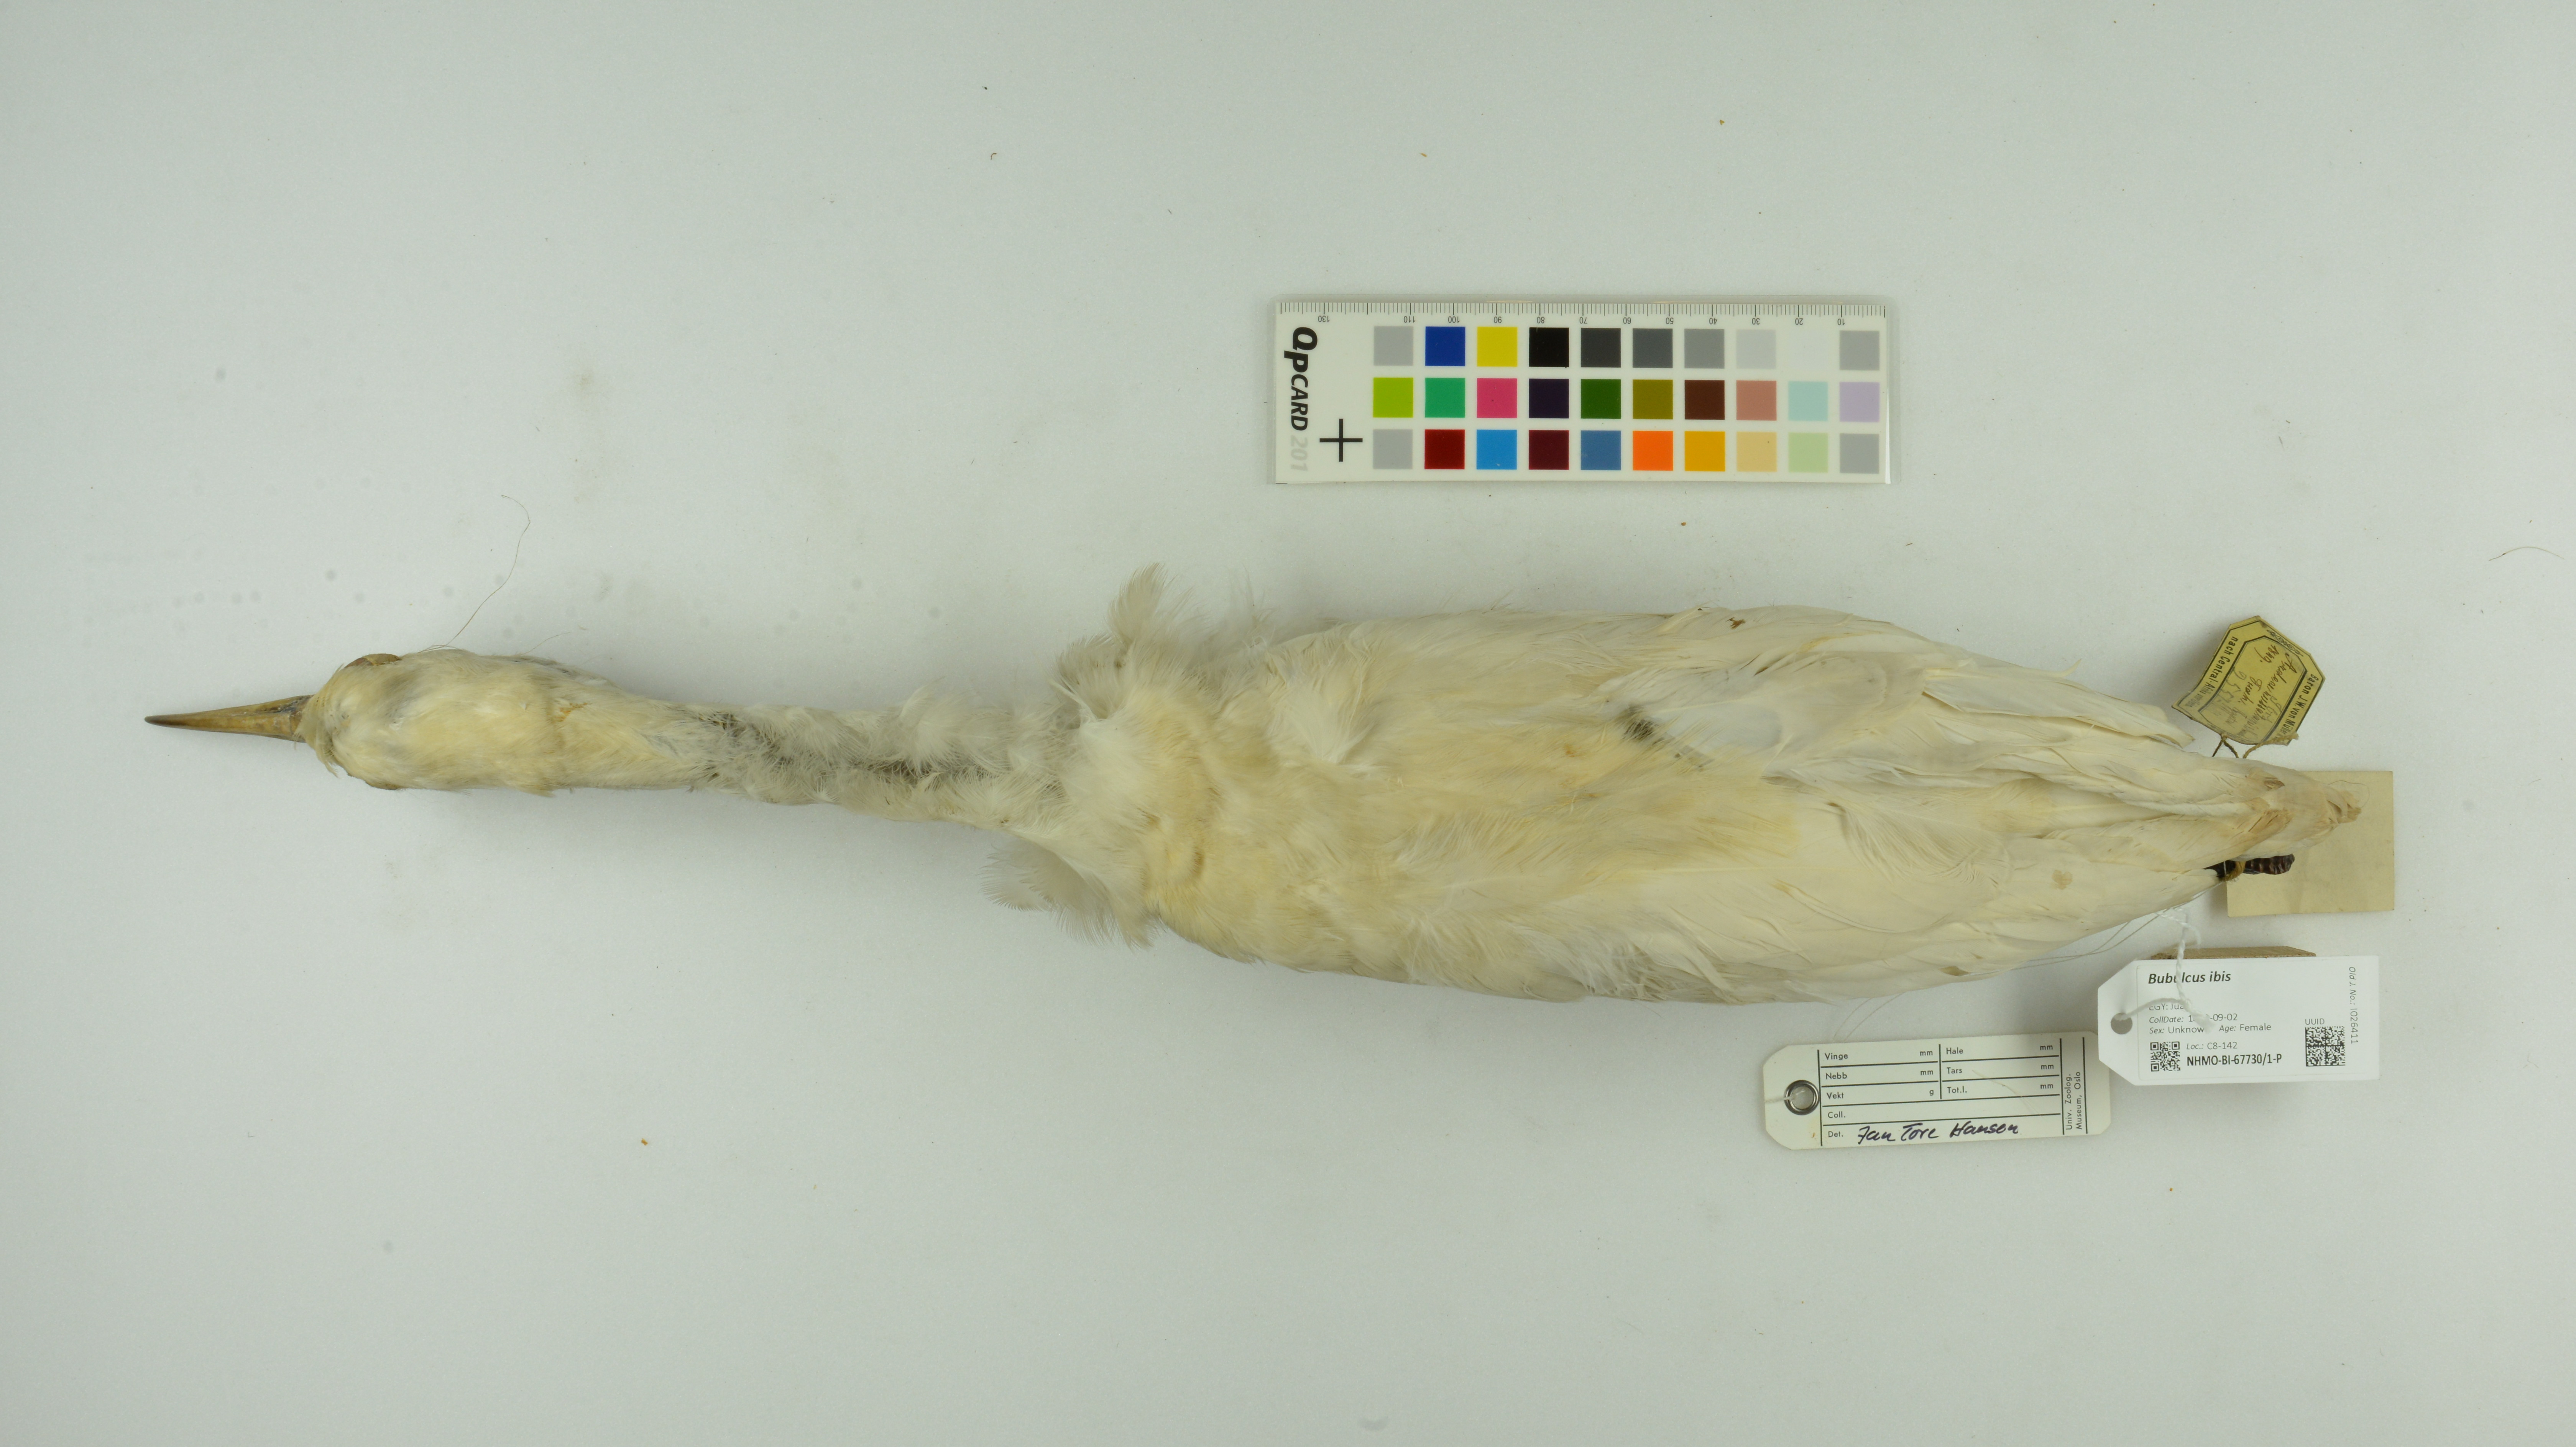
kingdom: Animalia
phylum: Chordata
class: Aves
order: Pelecaniformes
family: Ardeidae
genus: Bubulcus
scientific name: Bubulcus ibis
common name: Cattle egret
